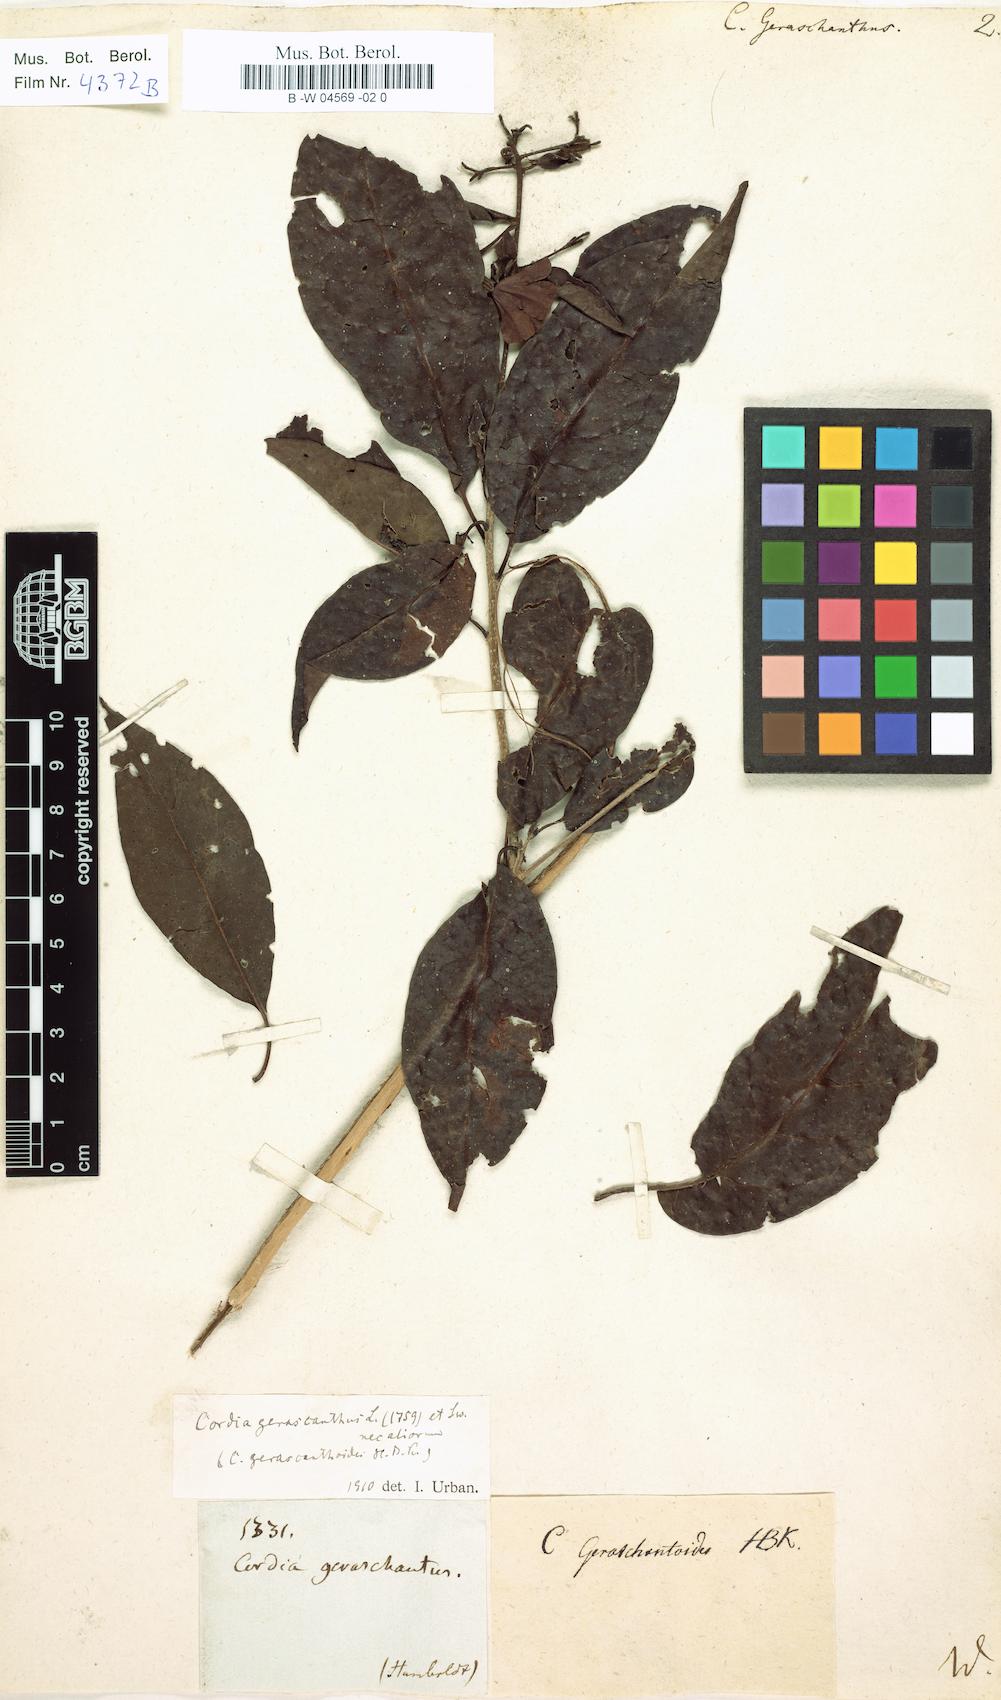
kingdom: Plantae
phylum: Tracheophyta
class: Magnoliopsida
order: Boraginales
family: Cordiaceae
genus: Cordia
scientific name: Cordia gerascanthus
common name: Baria
